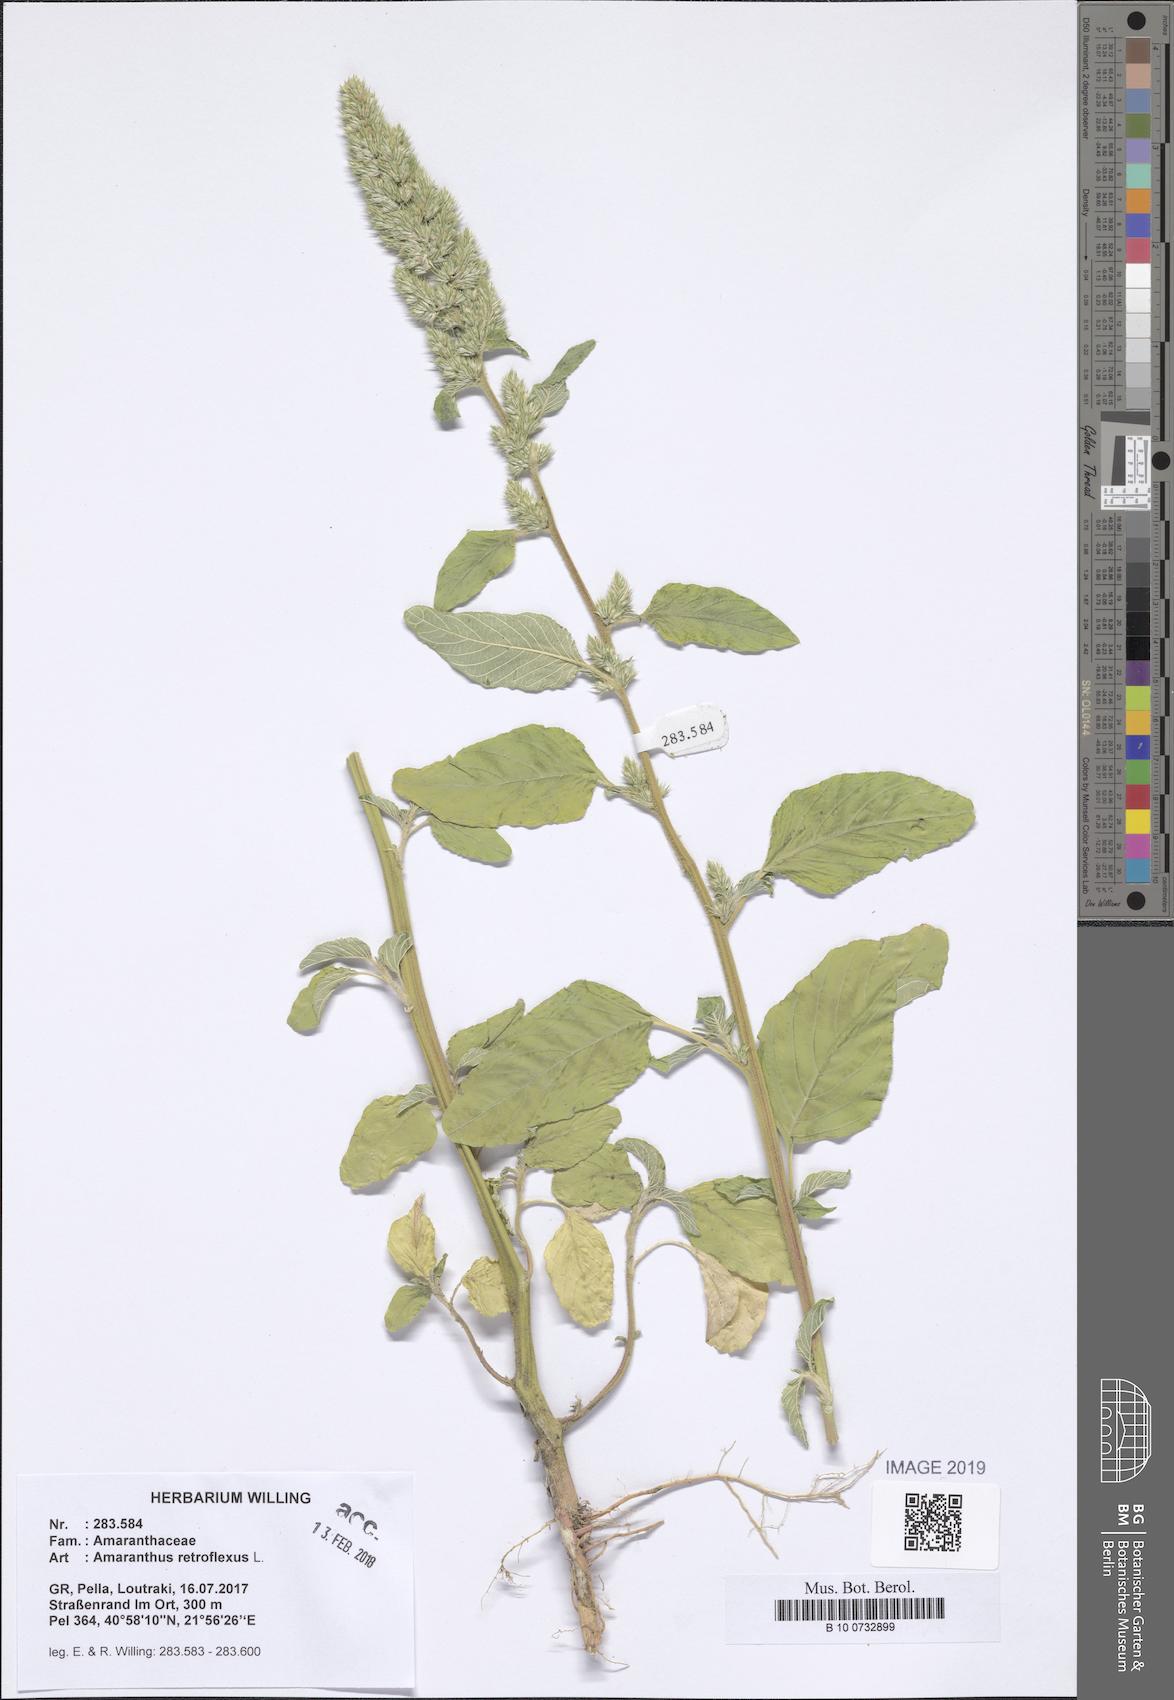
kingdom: Plantae
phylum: Tracheophyta
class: Magnoliopsida
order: Caryophyllales
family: Amaranthaceae
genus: Amaranthus
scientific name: Amaranthus retroflexus
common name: Redroot amaranth
